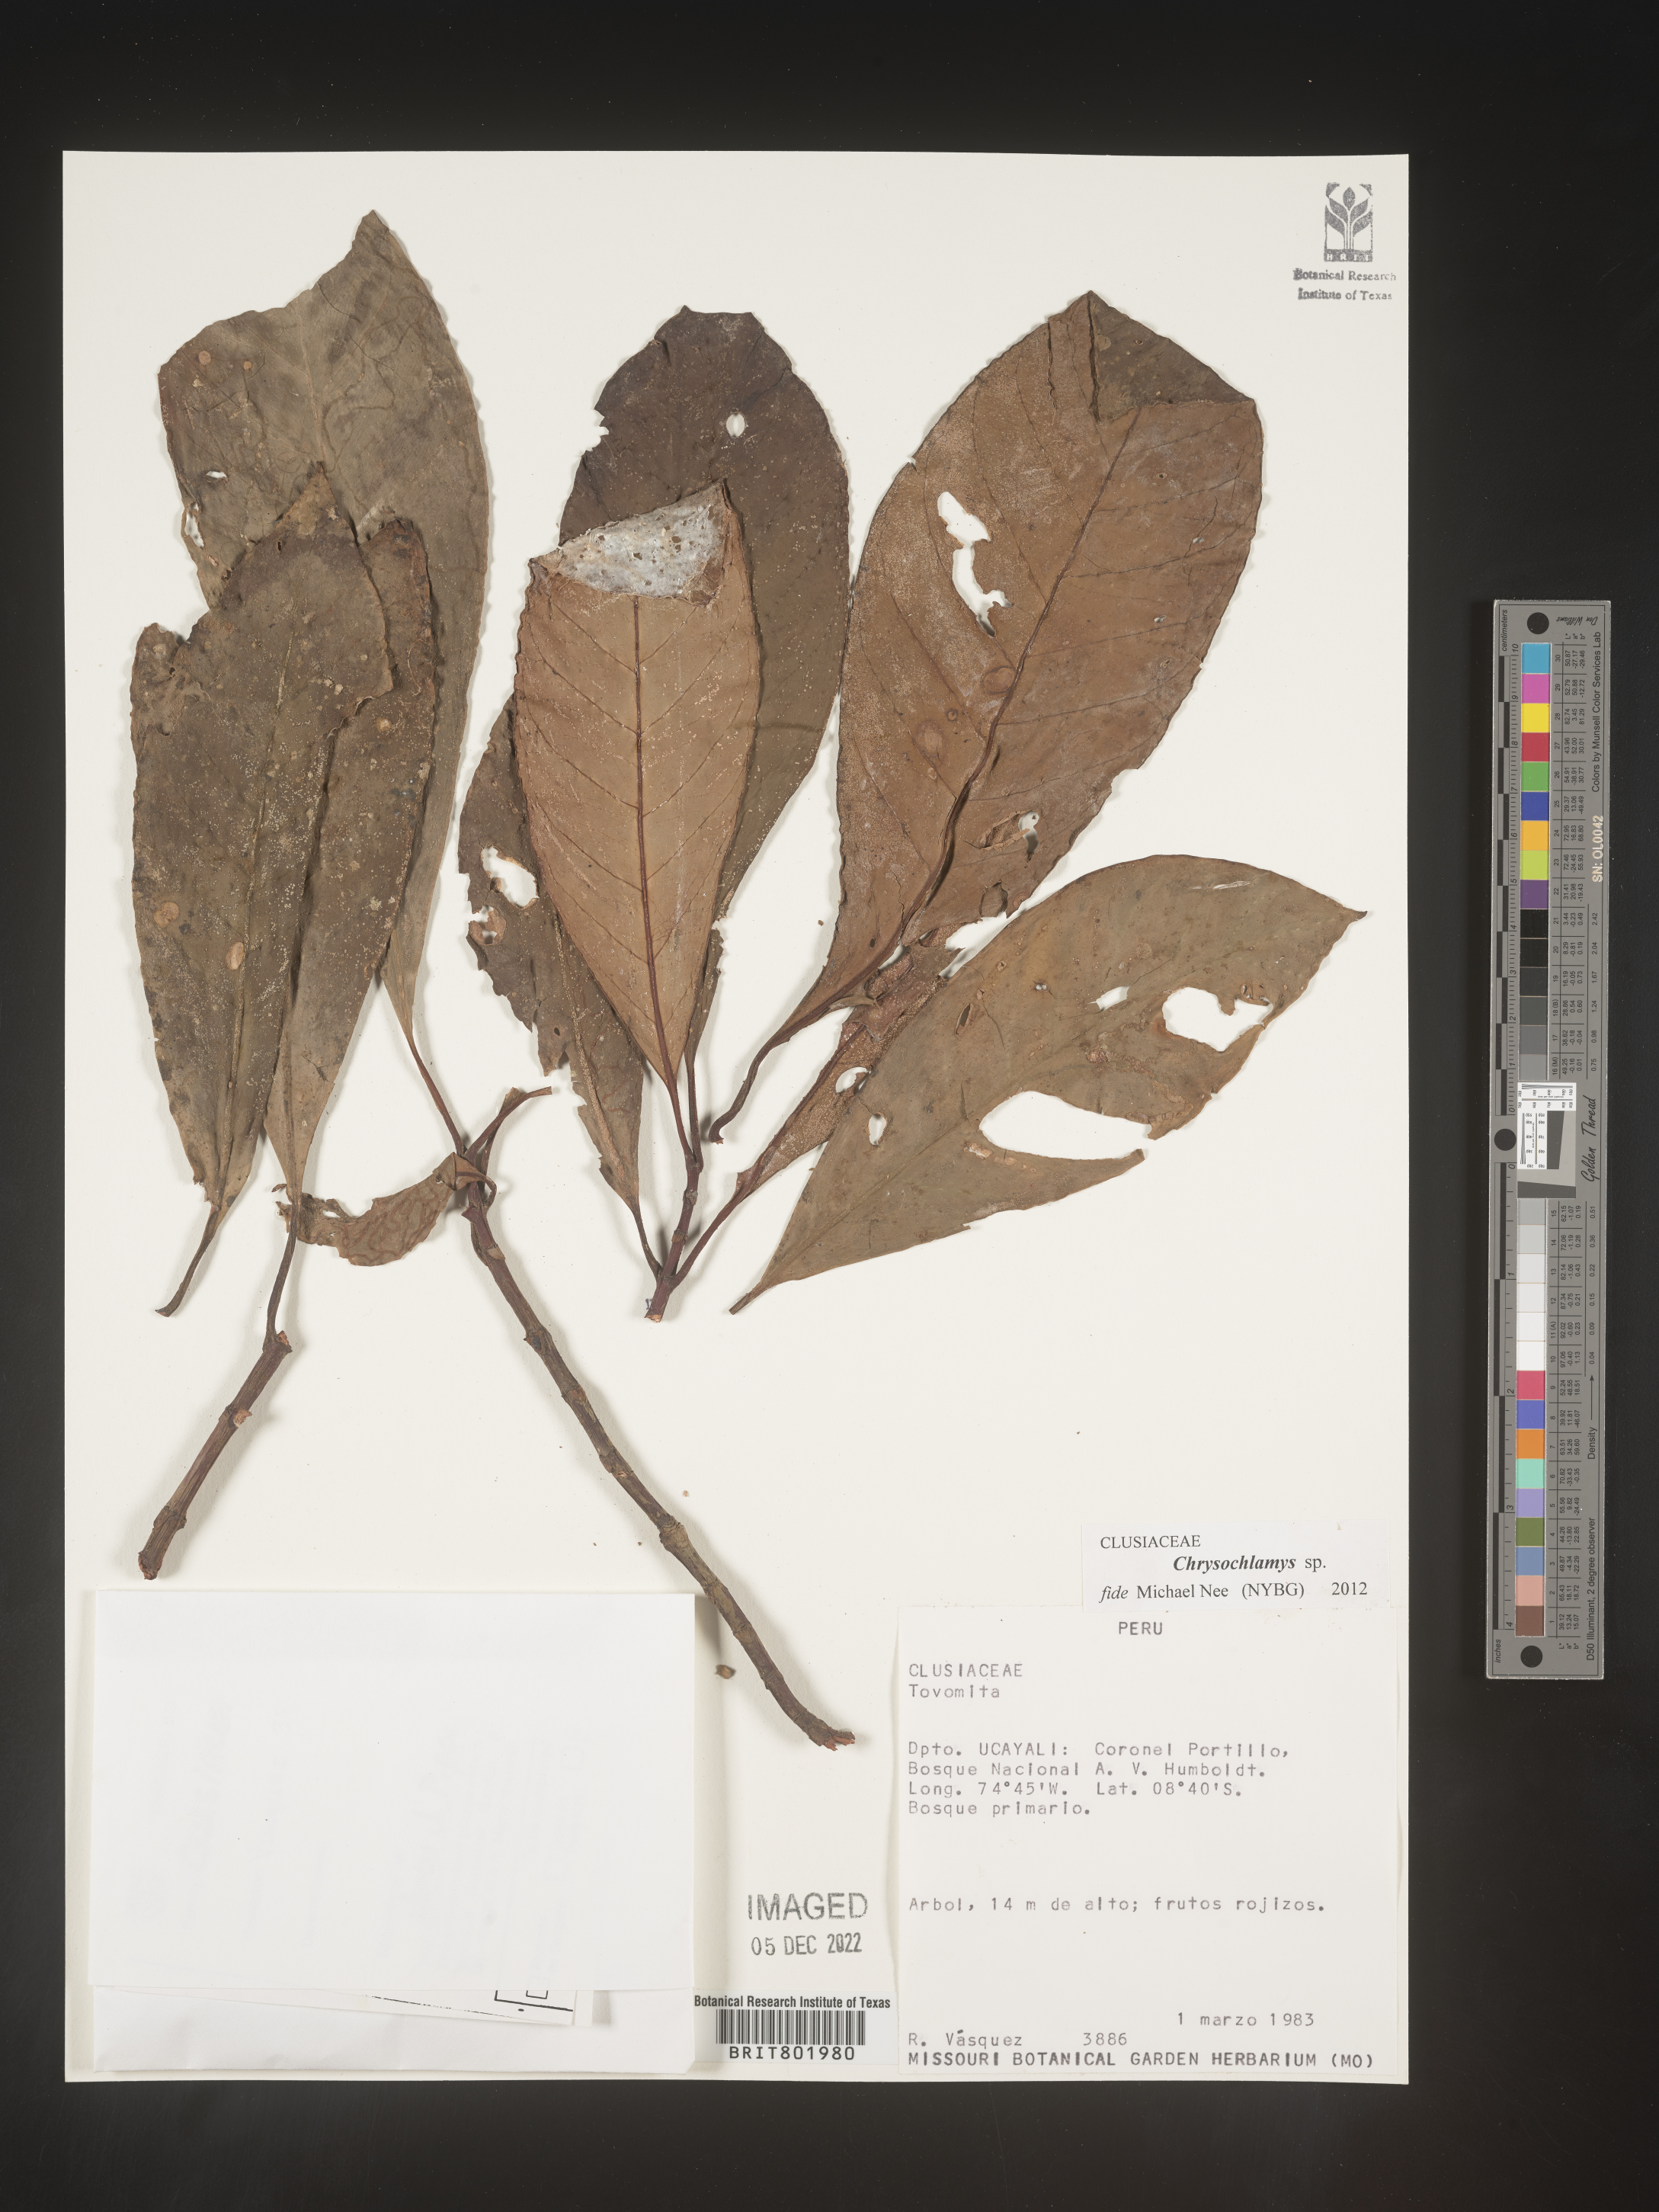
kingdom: Plantae
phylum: Tracheophyta
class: Magnoliopsida
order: Malpighiales
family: Clusiaceae
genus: Chrysochlamys
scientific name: Chrysochlamys
